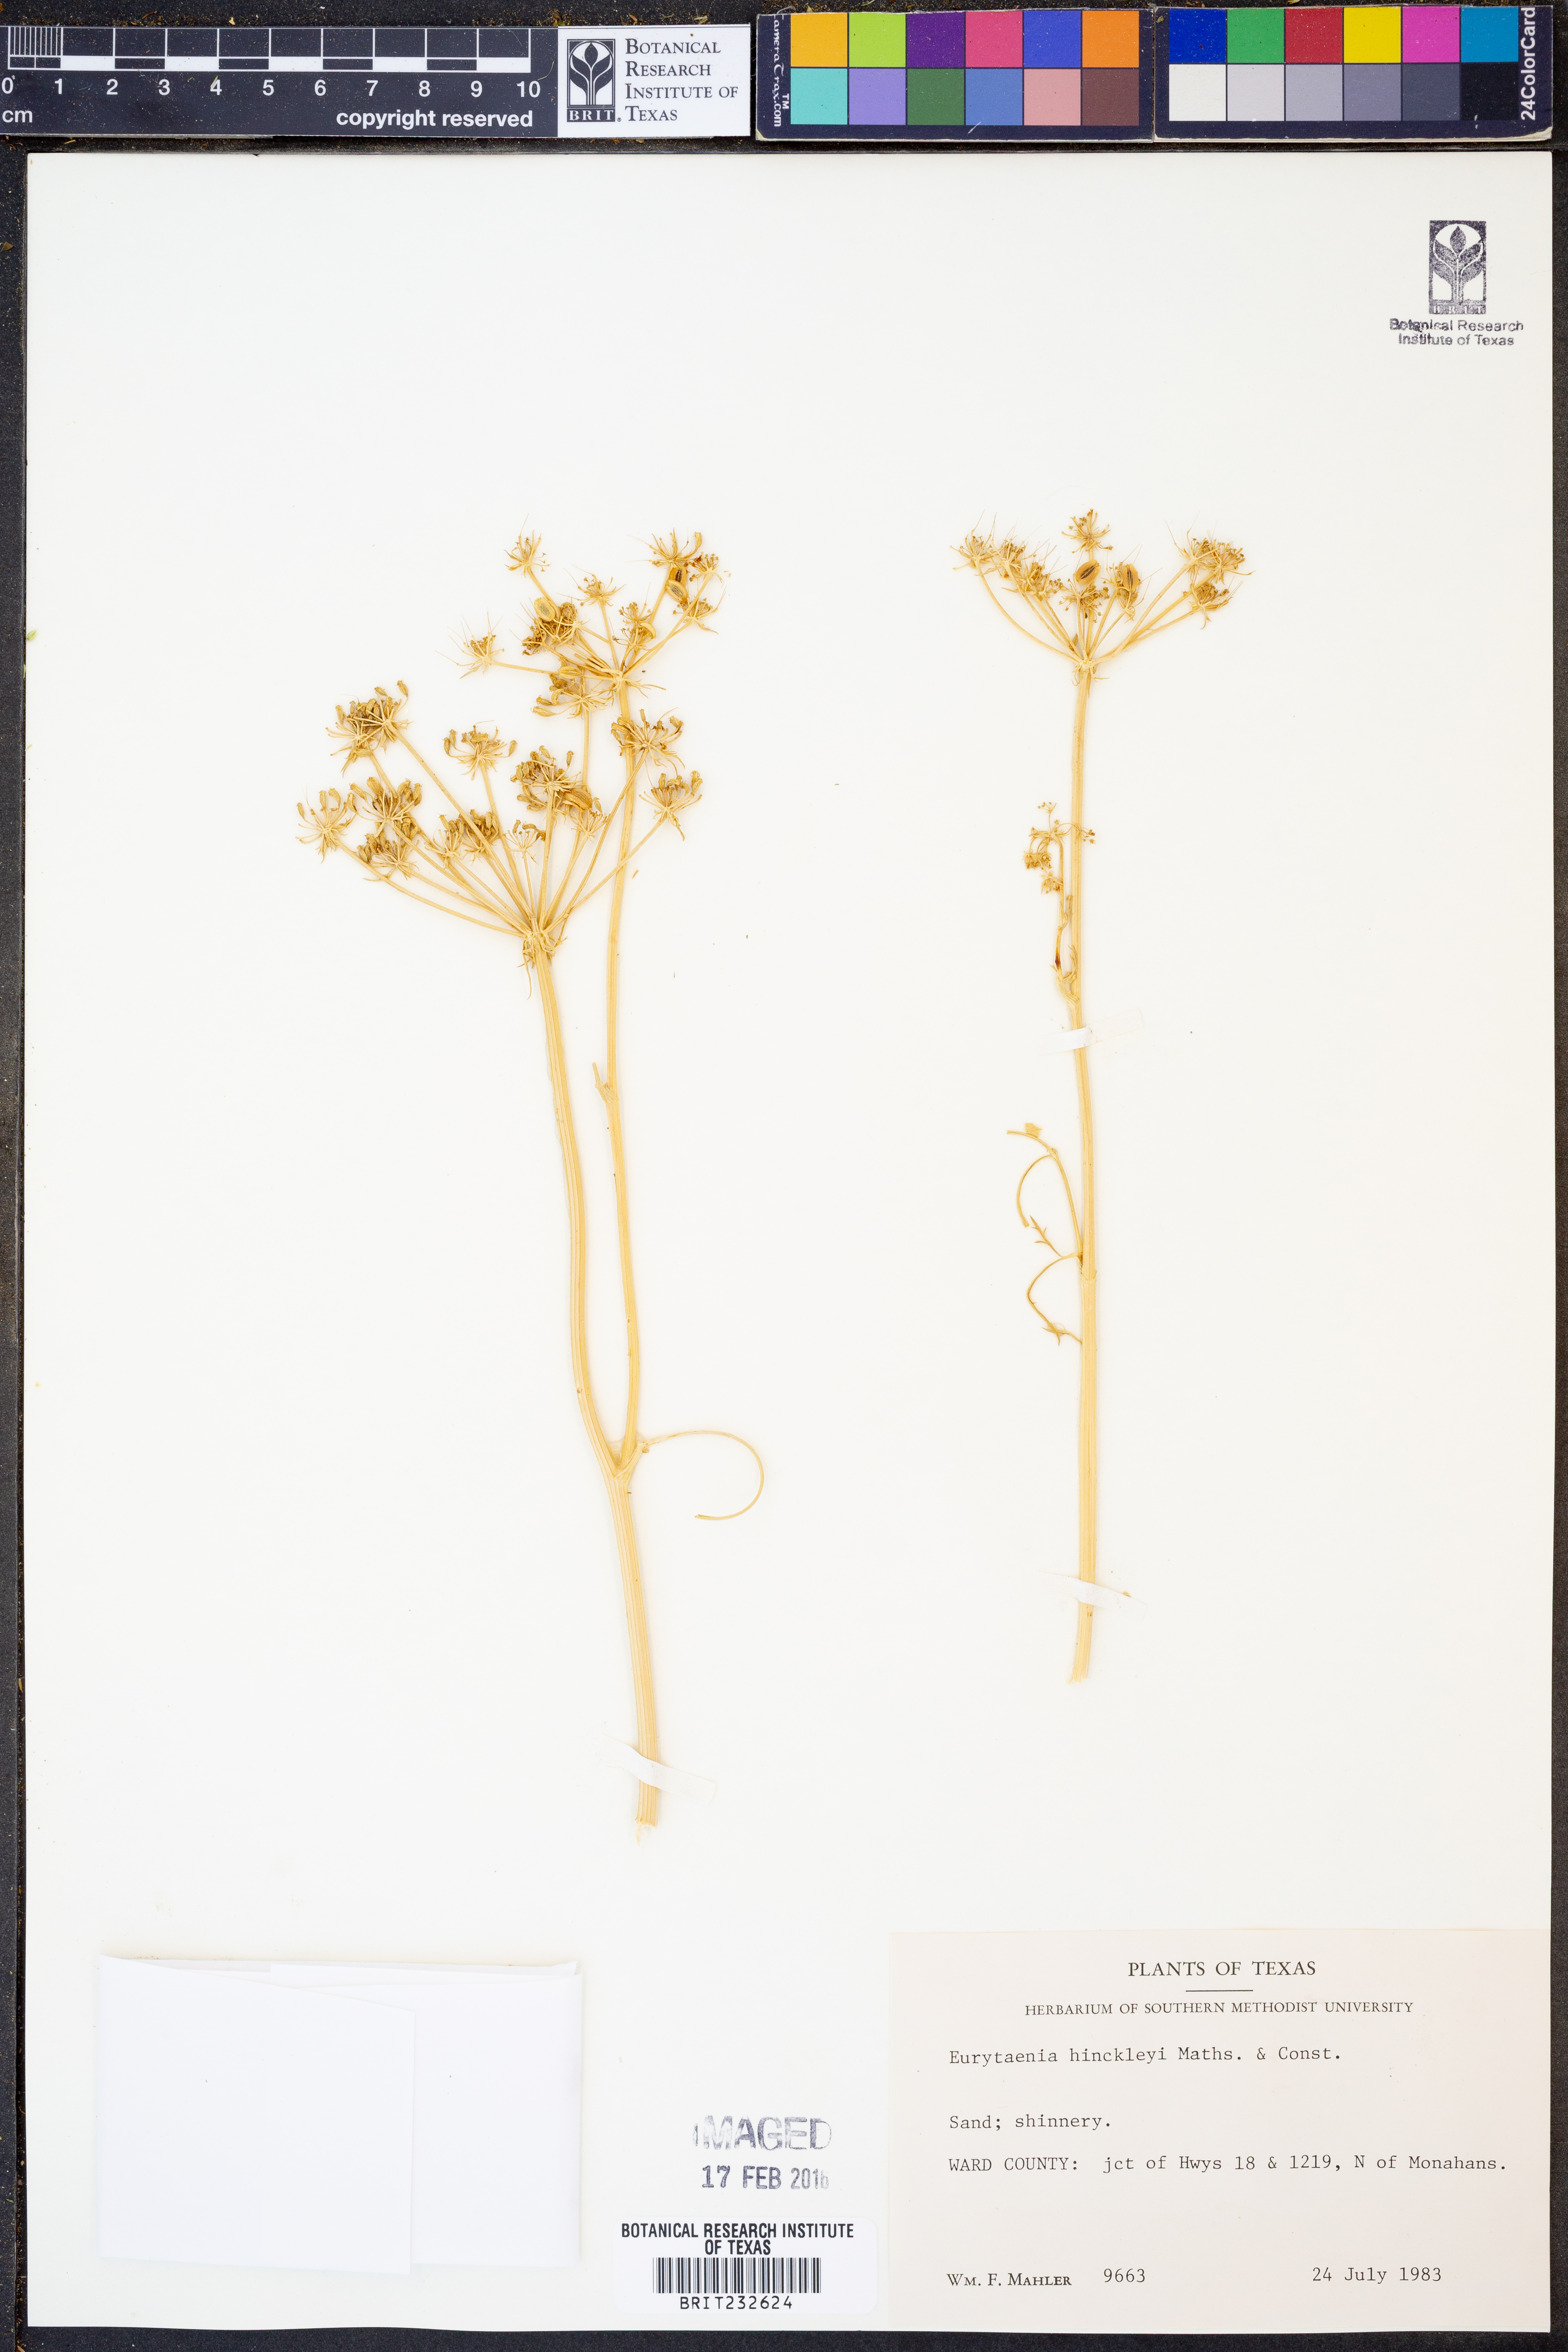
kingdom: Plantae
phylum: Tracheophyta
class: Magnoliopsida
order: Apiales
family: Apiaceae
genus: Eurytaenia
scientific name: Eurytaenia hinckleyi
